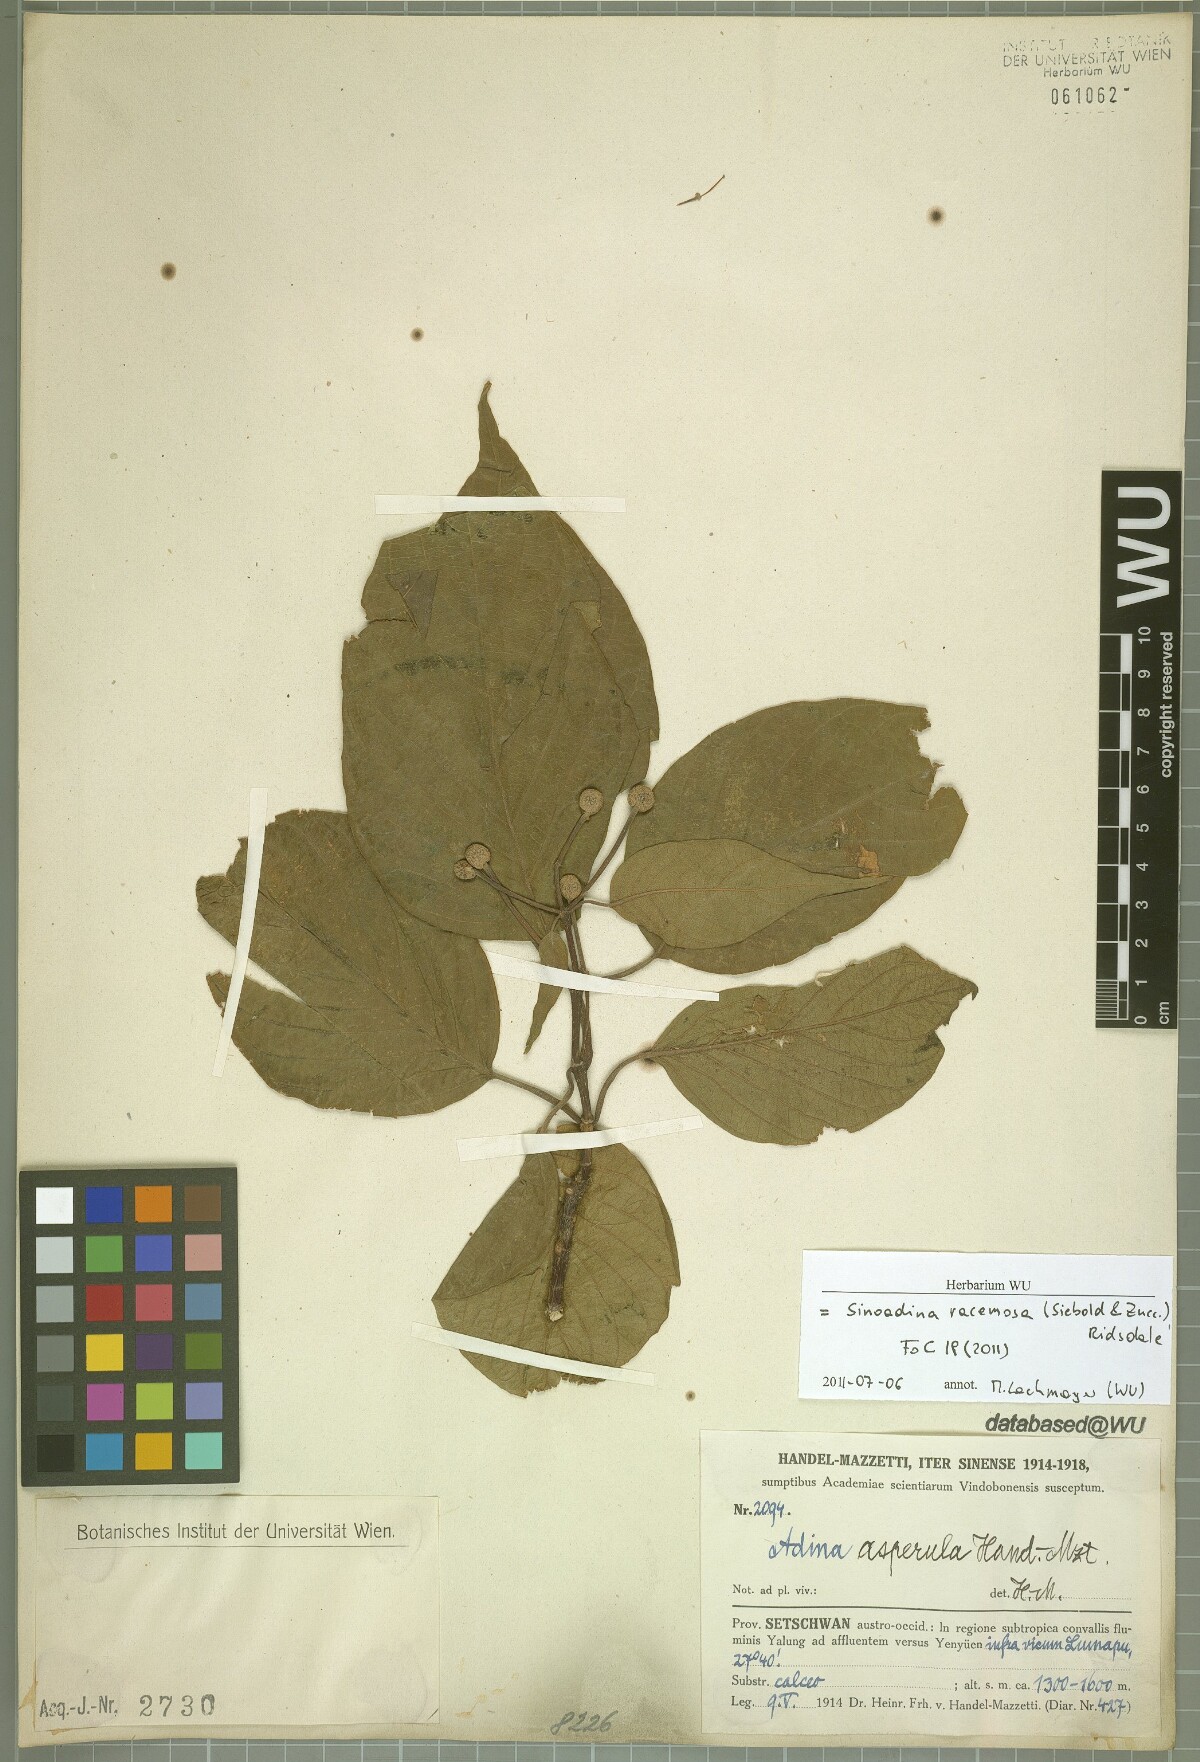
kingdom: Plantae
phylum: Tracheophyta
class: Magnoliopsida
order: Gentianales
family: Rubiaceae
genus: Adina
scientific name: Adina racemosa
